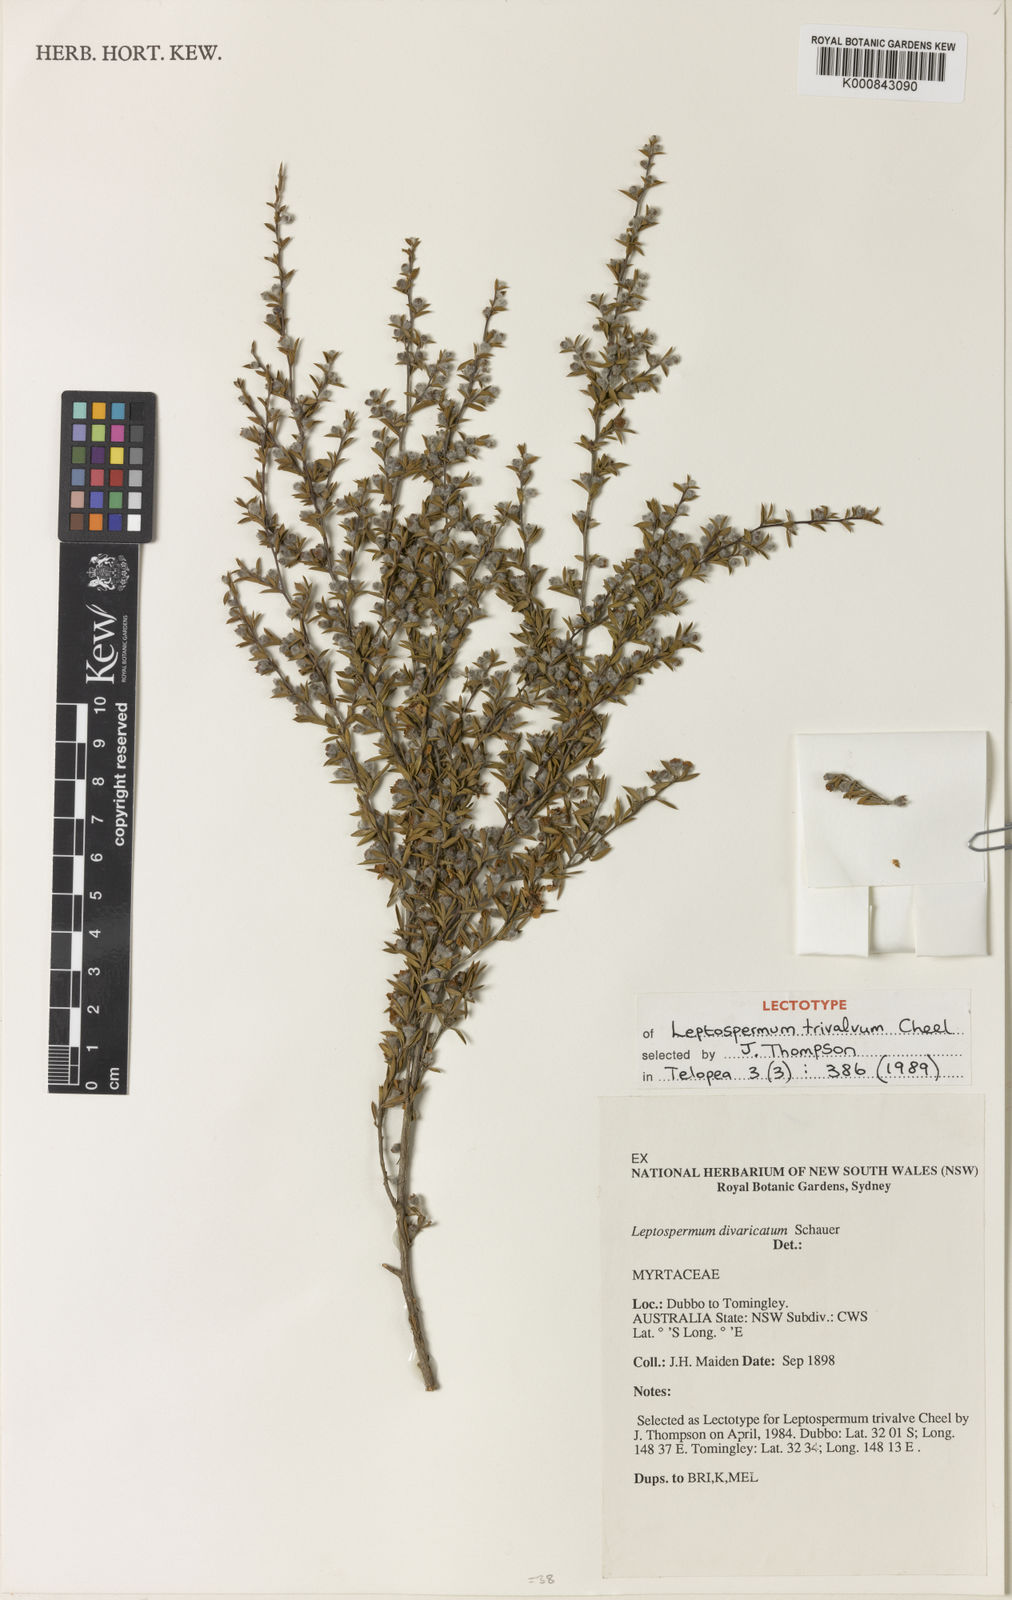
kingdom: Plantae
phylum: Tracheophyta
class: Magnoliopsida
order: Myrtales
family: Myrtaceae
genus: Leptospermum
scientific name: Leptospermum divaricatum
